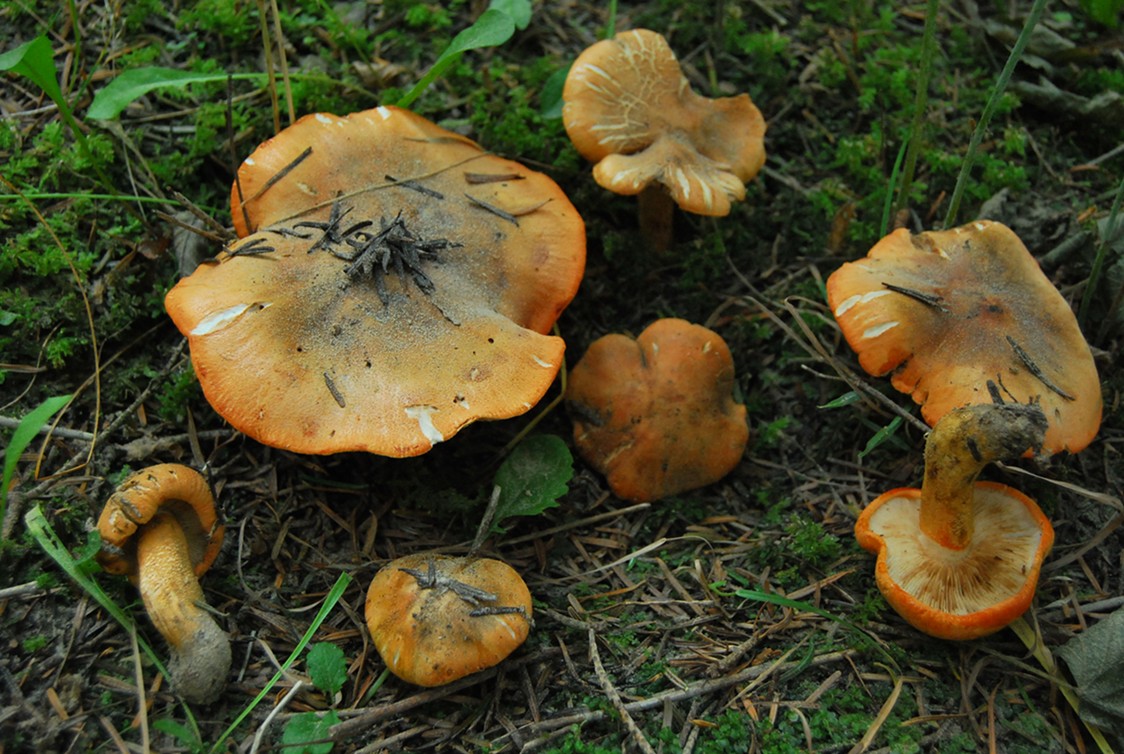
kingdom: Fungi
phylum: Basidiomycota
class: Agaricomycetes
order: Agaricales
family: Tricholomataceae
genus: Tricholoma
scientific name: Tricholoma aurantium
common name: orangegul ridderhat
